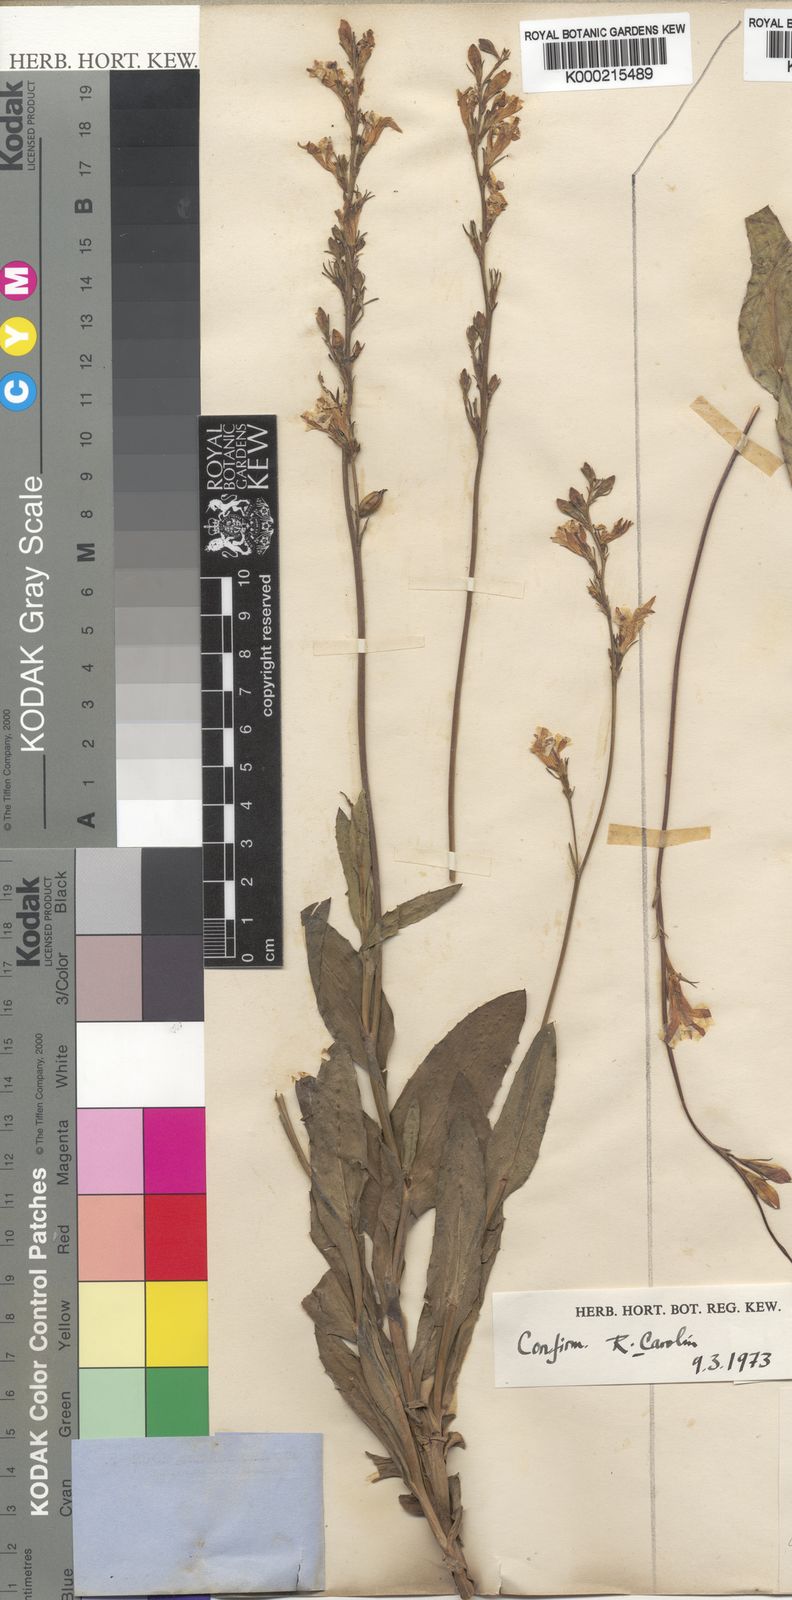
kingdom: Plantae
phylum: Tracheophyta
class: Magnoliopsida
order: Asterales
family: Goodeniaceae
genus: Goodenia
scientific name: Goodenia decurrens
